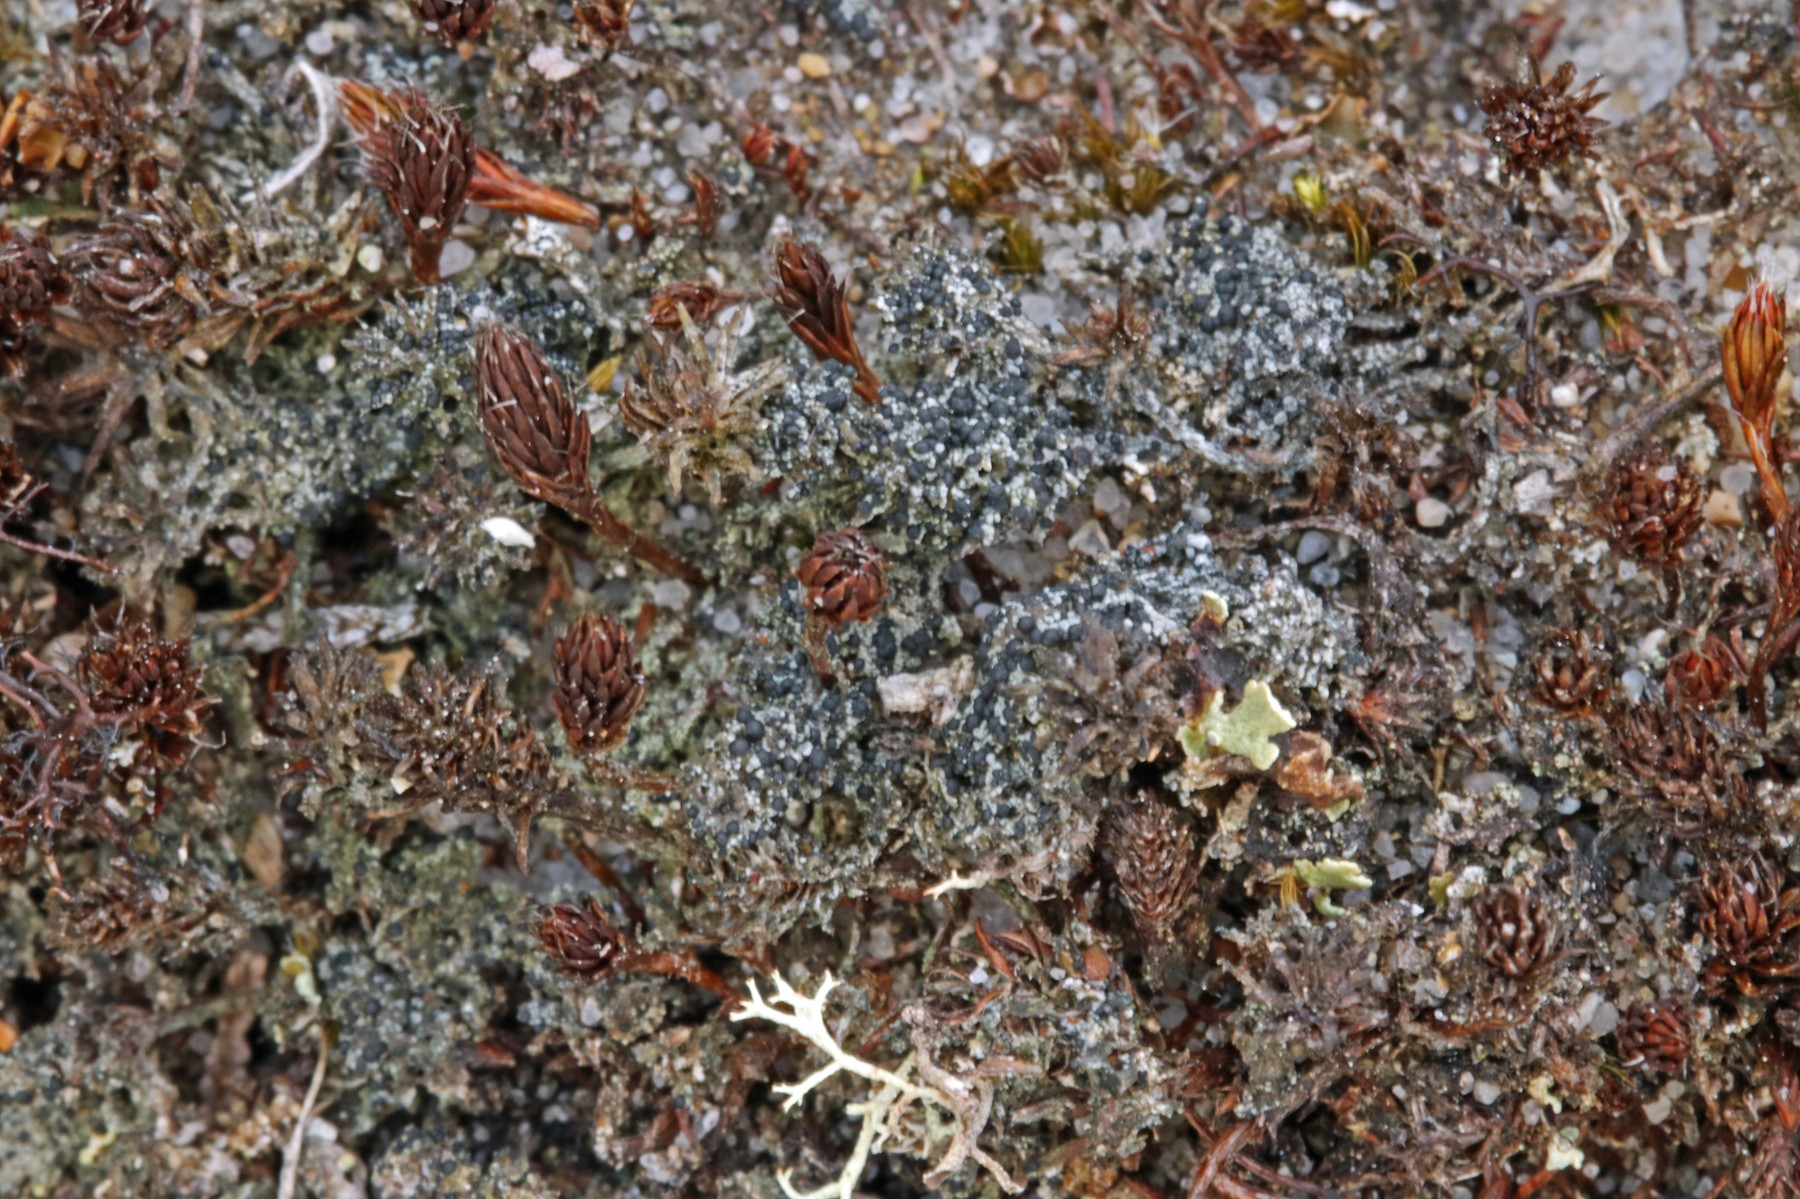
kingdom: Fungi
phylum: Ascomycota
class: Lecanoromycetes
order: Lecanorales
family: Byssolomataceae
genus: Micarea
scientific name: Micarea lignaria
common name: tørve-knaplav
